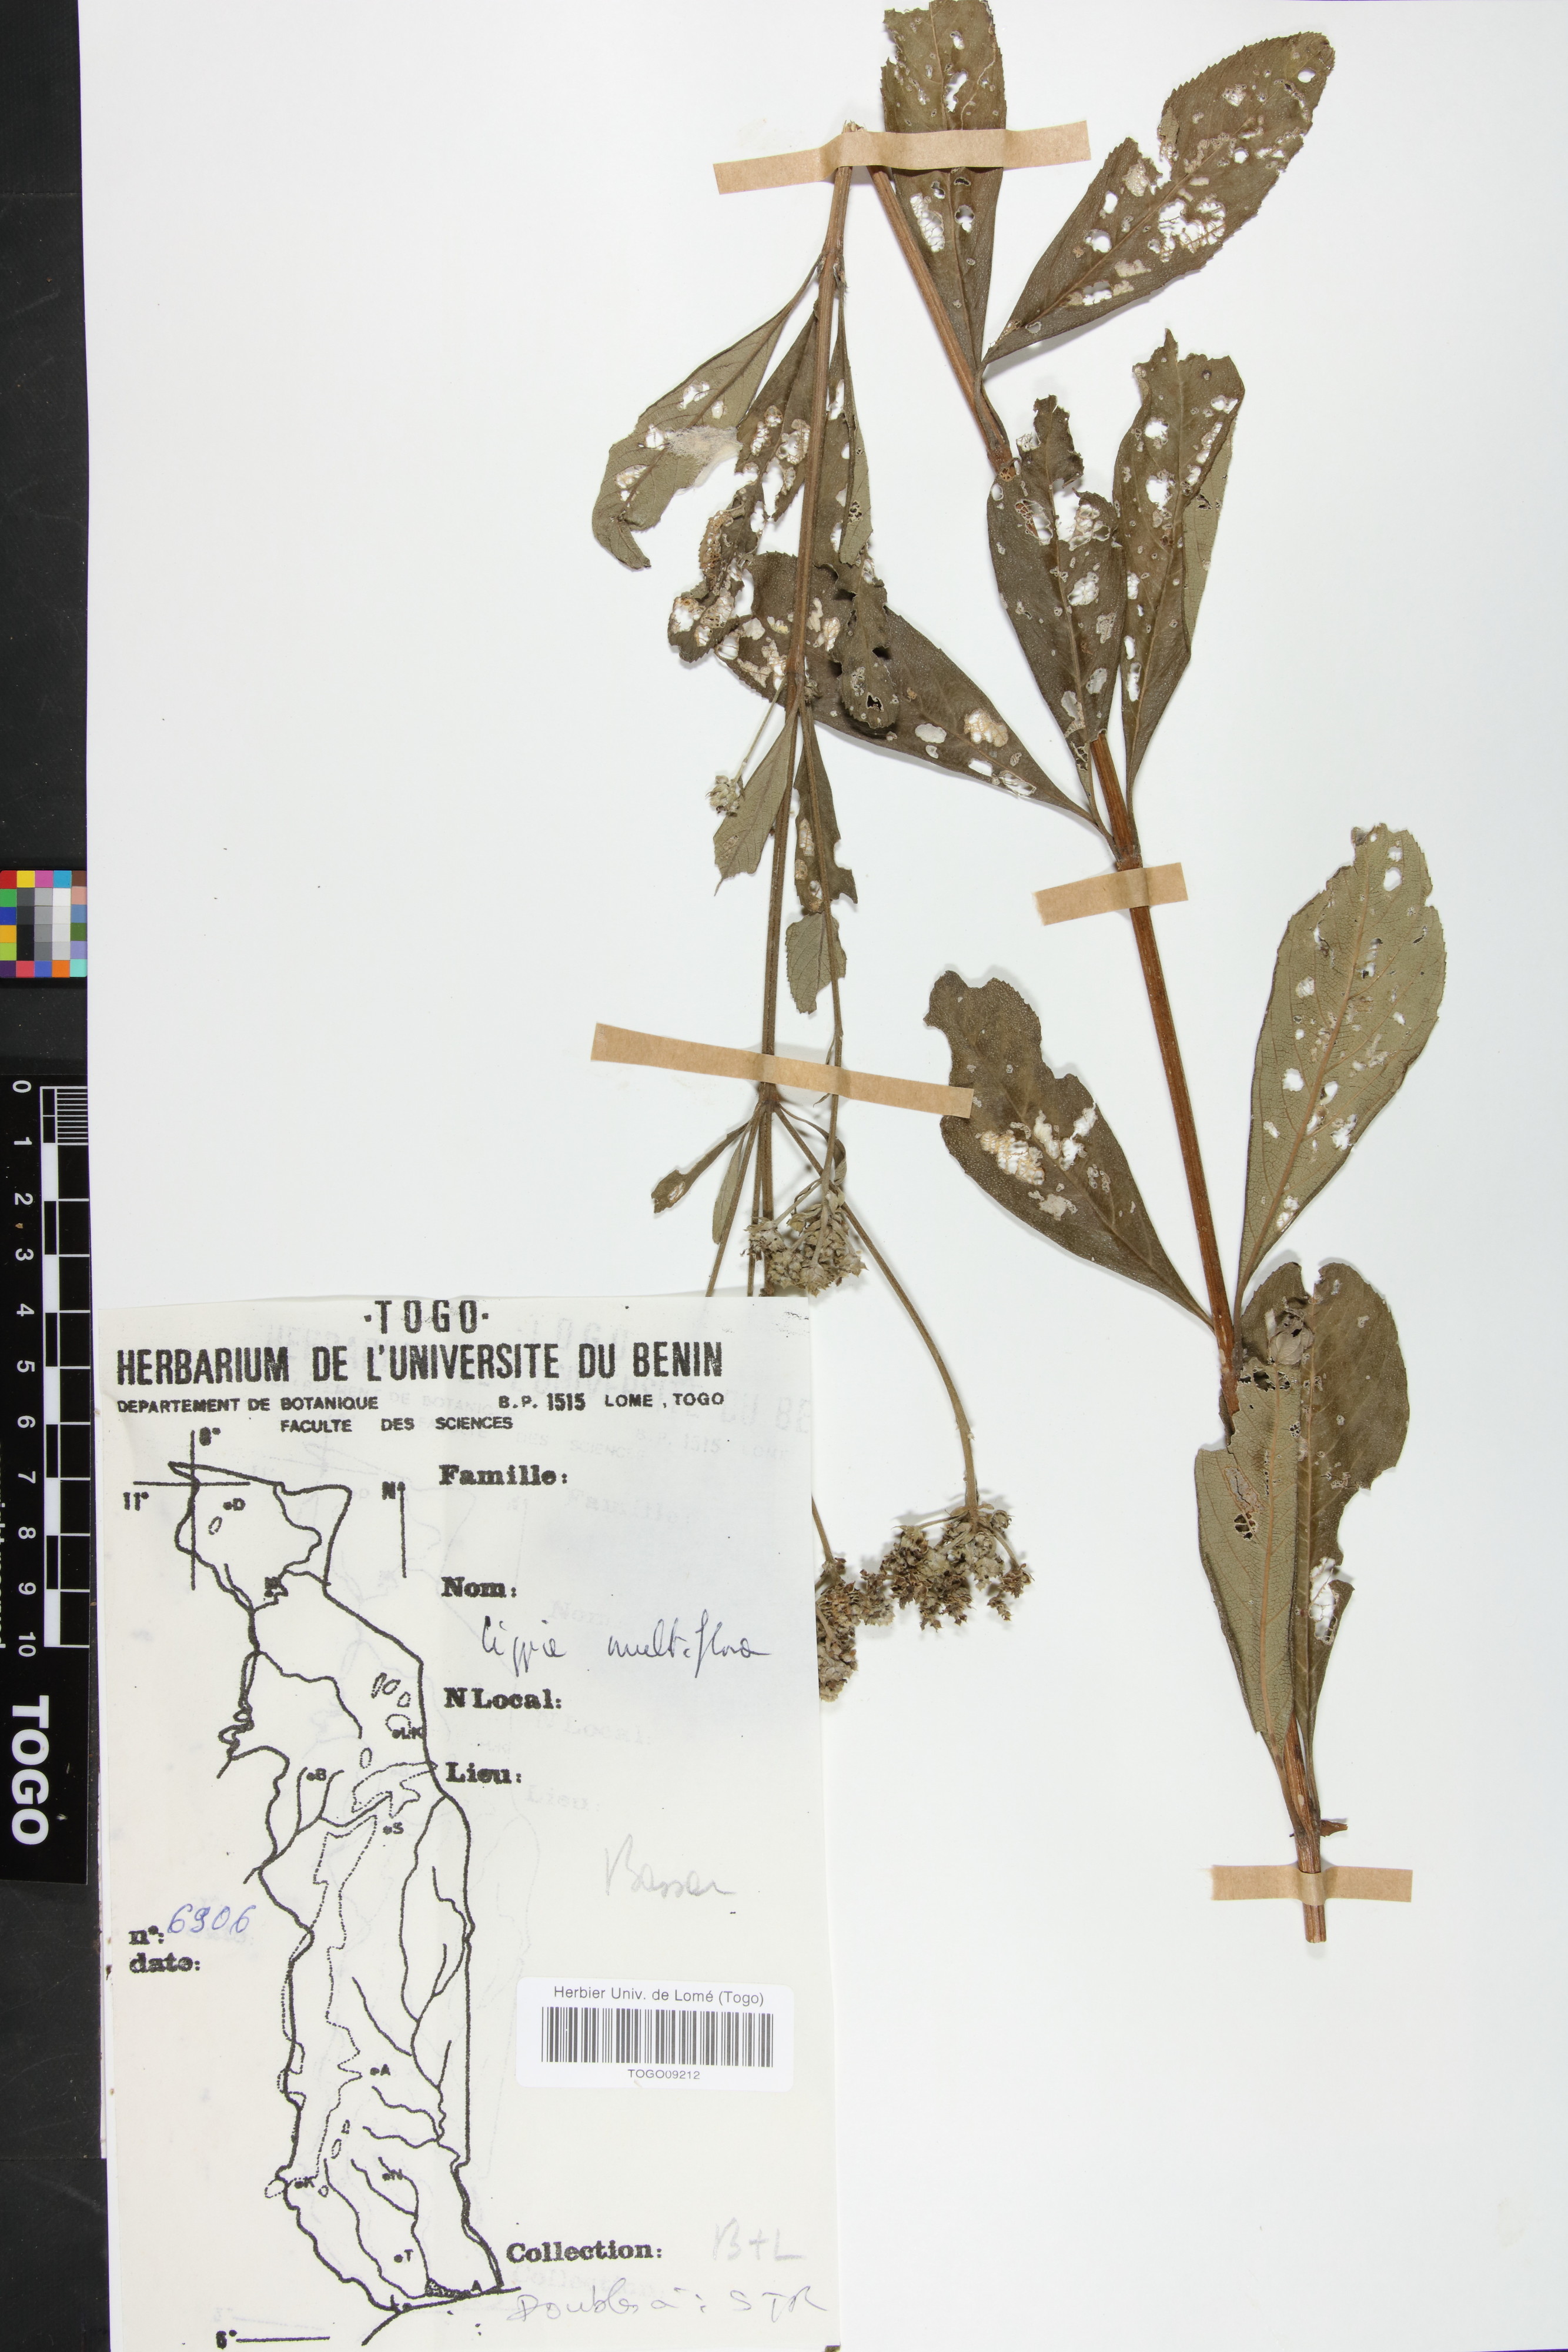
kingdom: Plantae
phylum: Tracheophyta
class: Magnoliopsida
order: Lamiales
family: Verbenaceae
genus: Lippia
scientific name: Lippia multiflora
